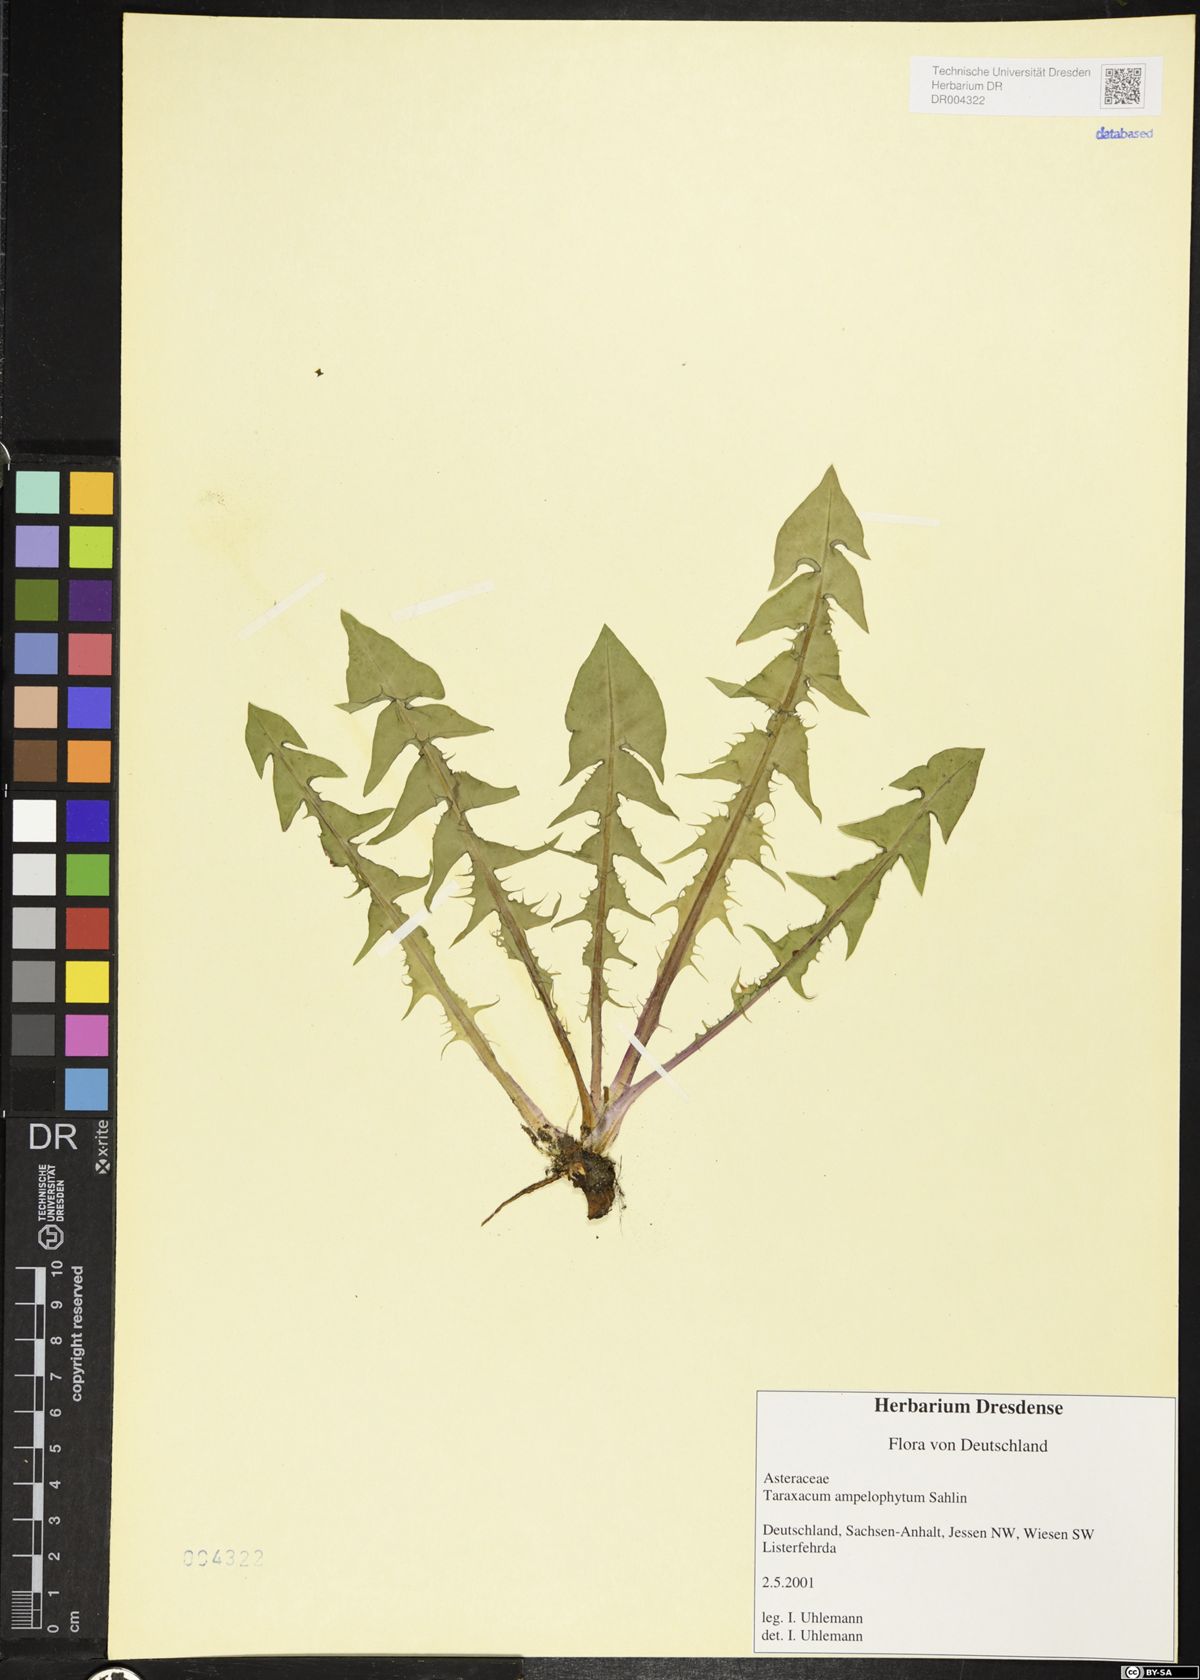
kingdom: Plantae
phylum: Tracheophyta
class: Magnoliopsida
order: Asterales
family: Asteraceae
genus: Taraxacum
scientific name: Taraxacum debrayi
